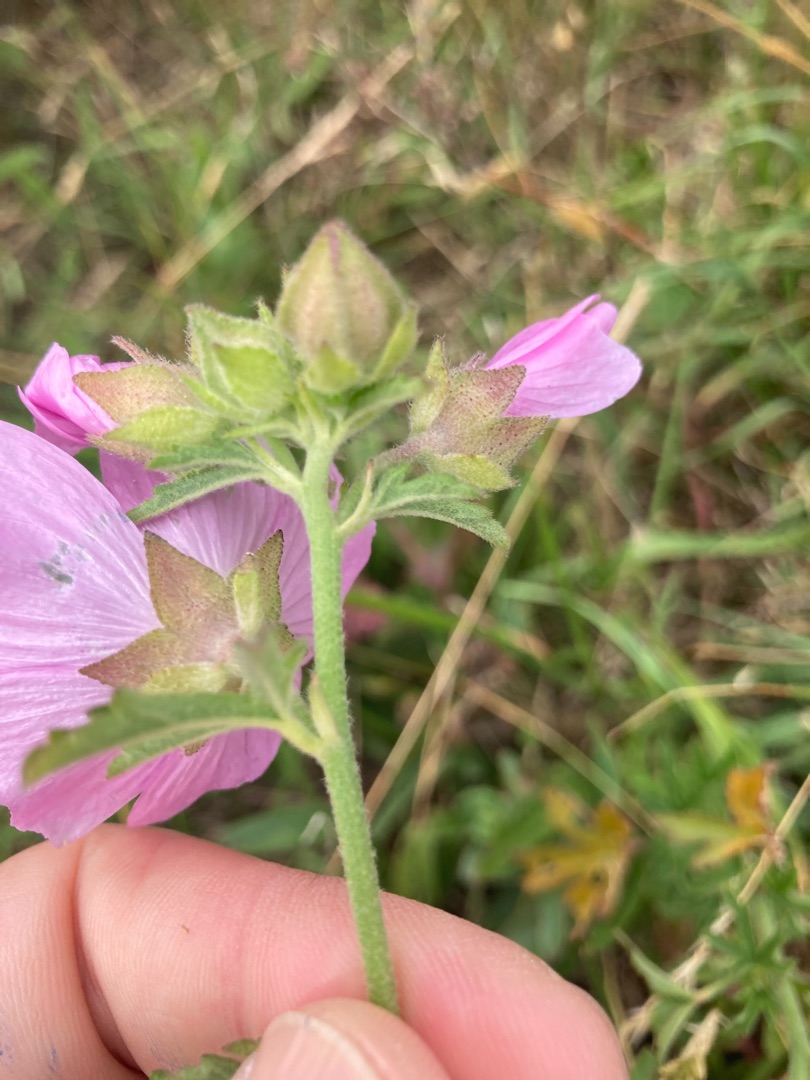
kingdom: Plantae
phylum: Tracheophyta
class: Magnoliopsida
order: Malvales
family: Malvaceae
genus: Malva
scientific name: Malva alcea
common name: Rosen-katost
